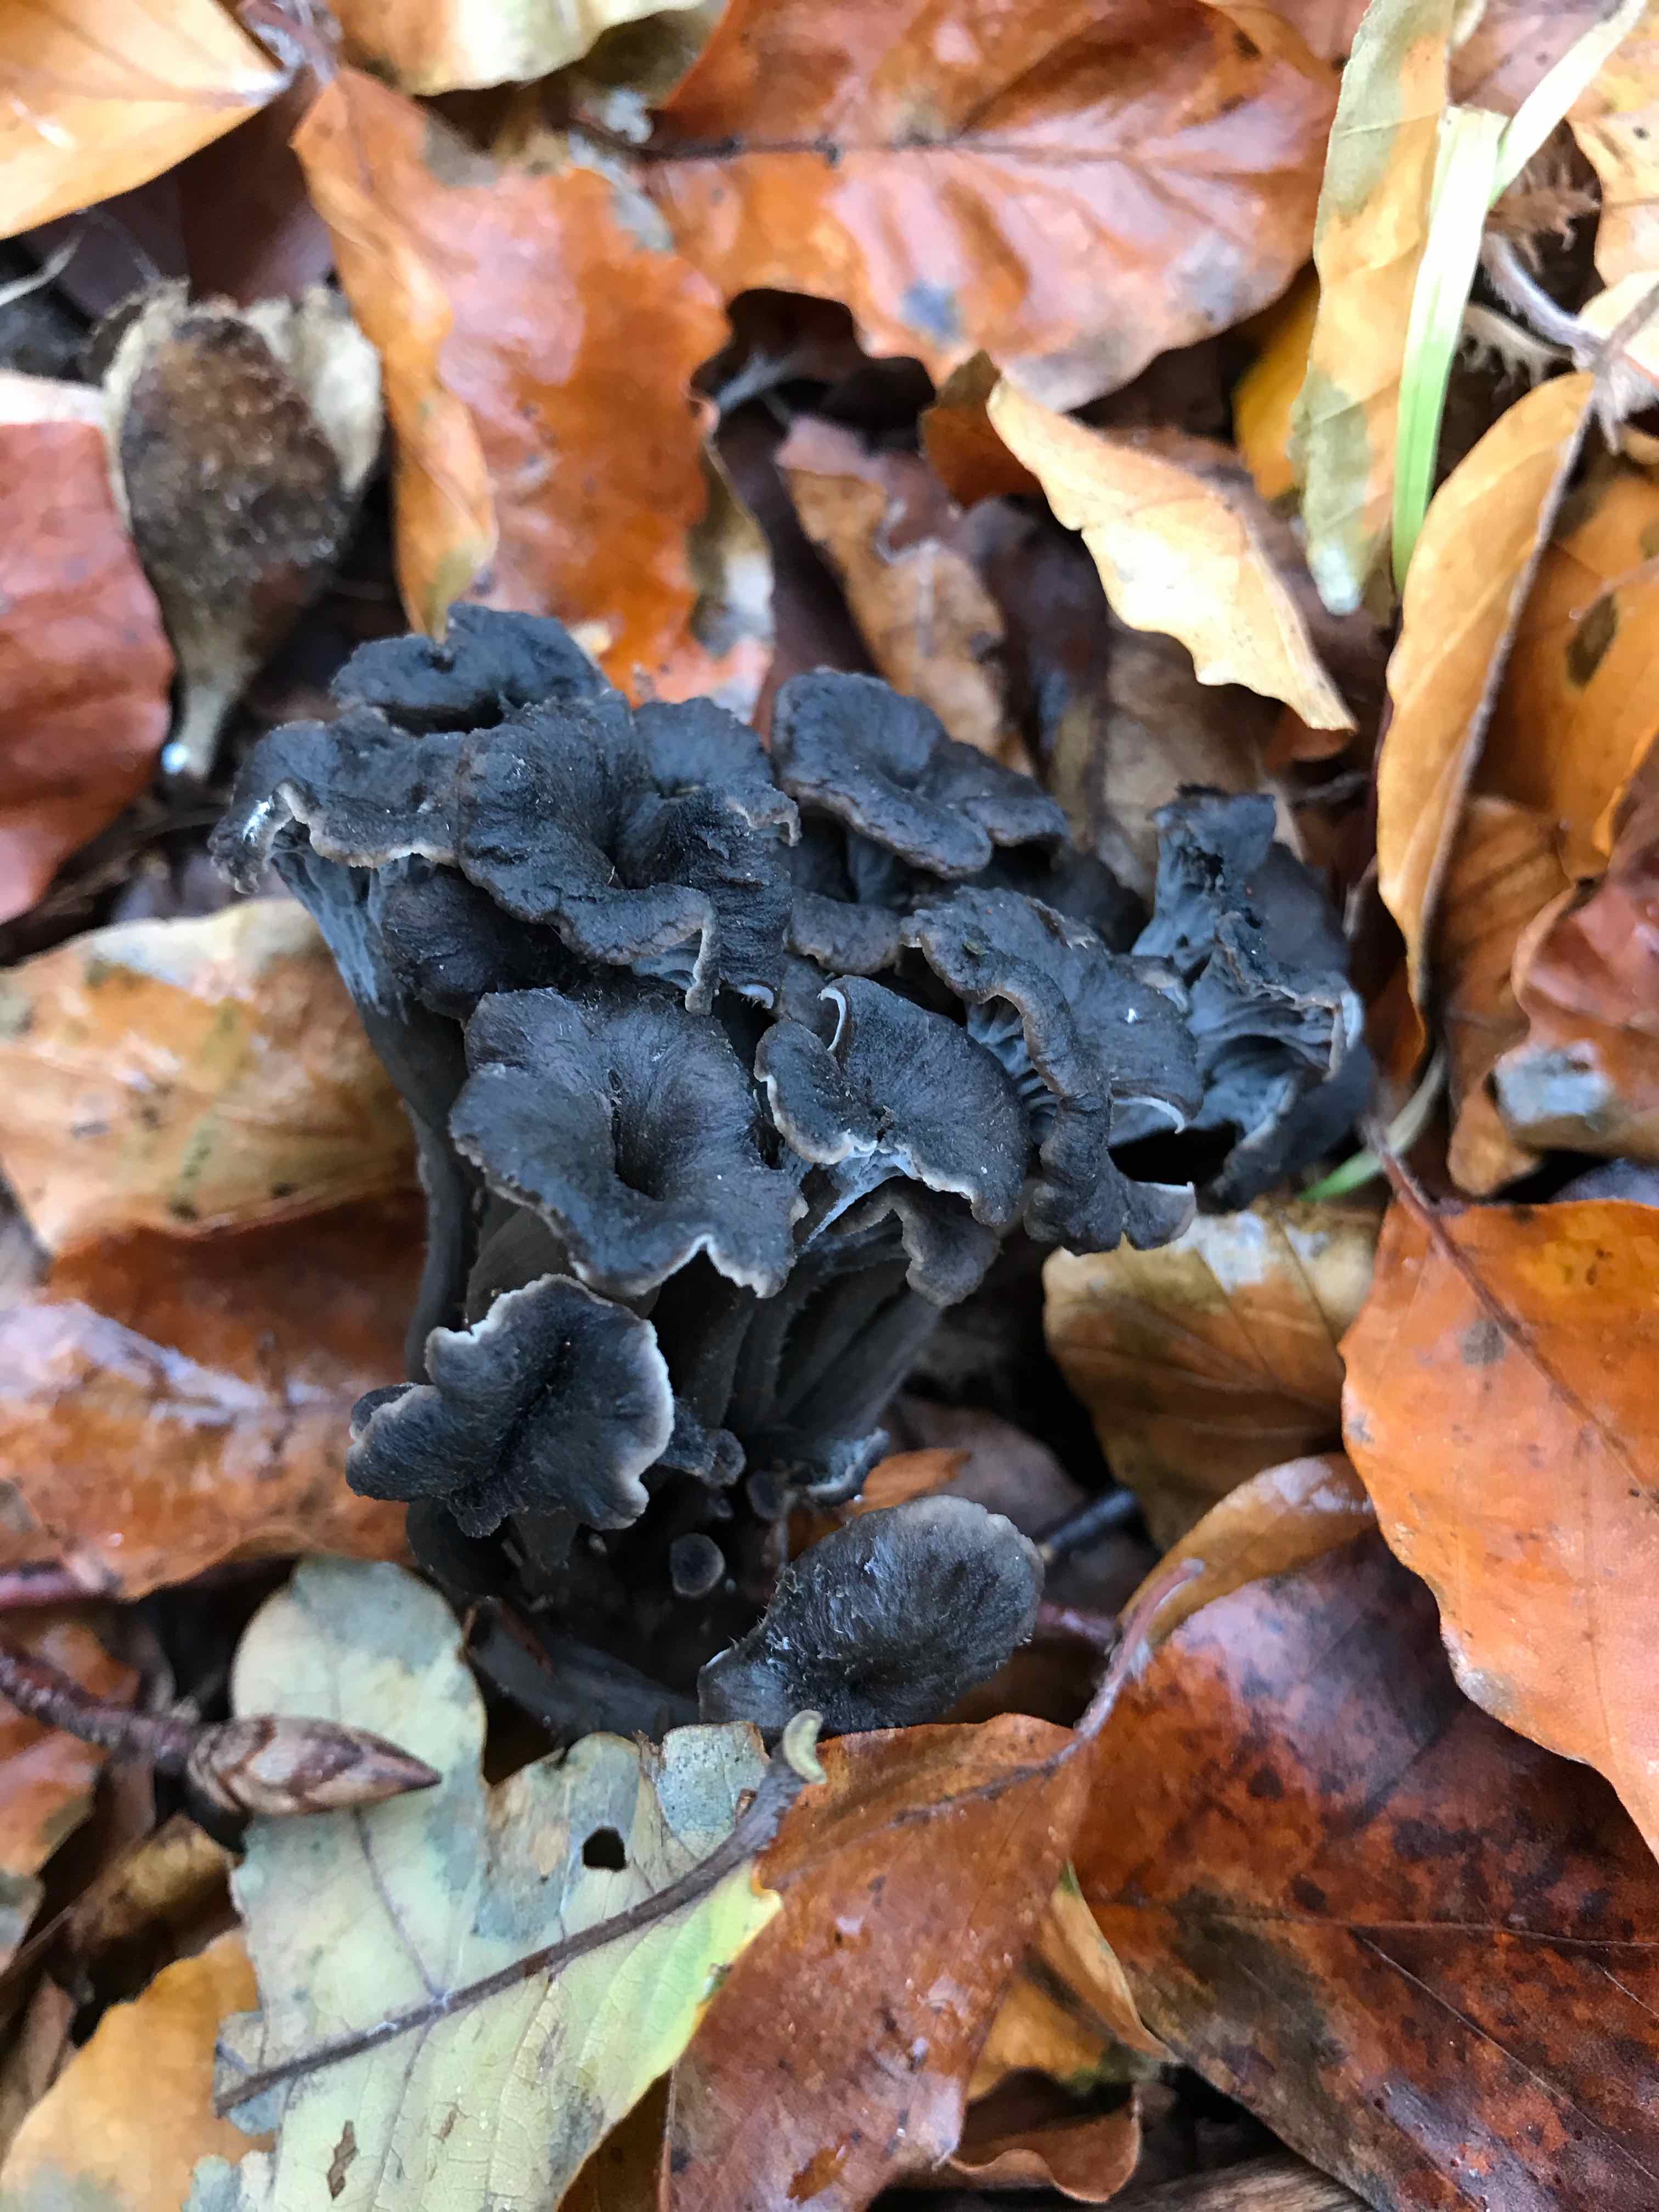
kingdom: Fungi
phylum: Basidiomycota
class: Agaricomycetes
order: Cantharellales
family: Hydnaceae
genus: Cantharellus
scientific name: Cantharellus cinereus
